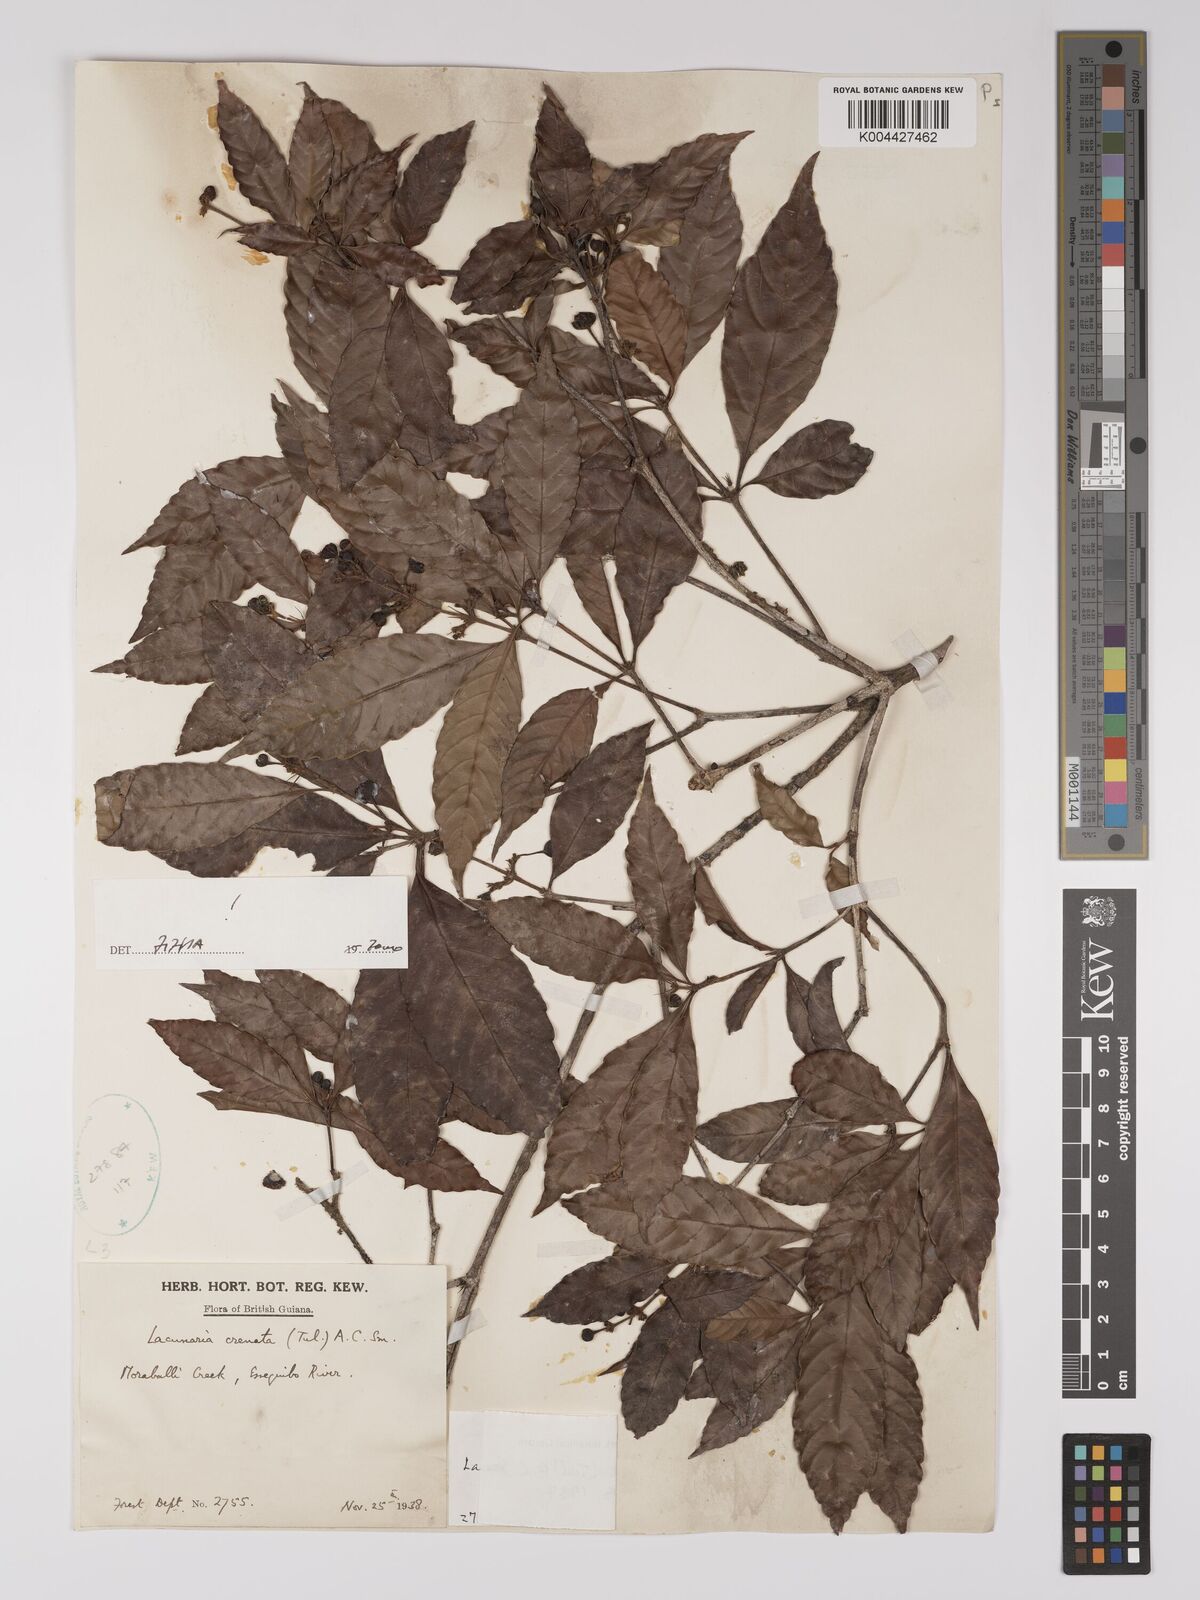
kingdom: Plantae
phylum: Tracheophyta
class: Magnoliopsida
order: Malpighiales
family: Quiinaceae
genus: Lacunaria
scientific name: Lacunaria crenata
